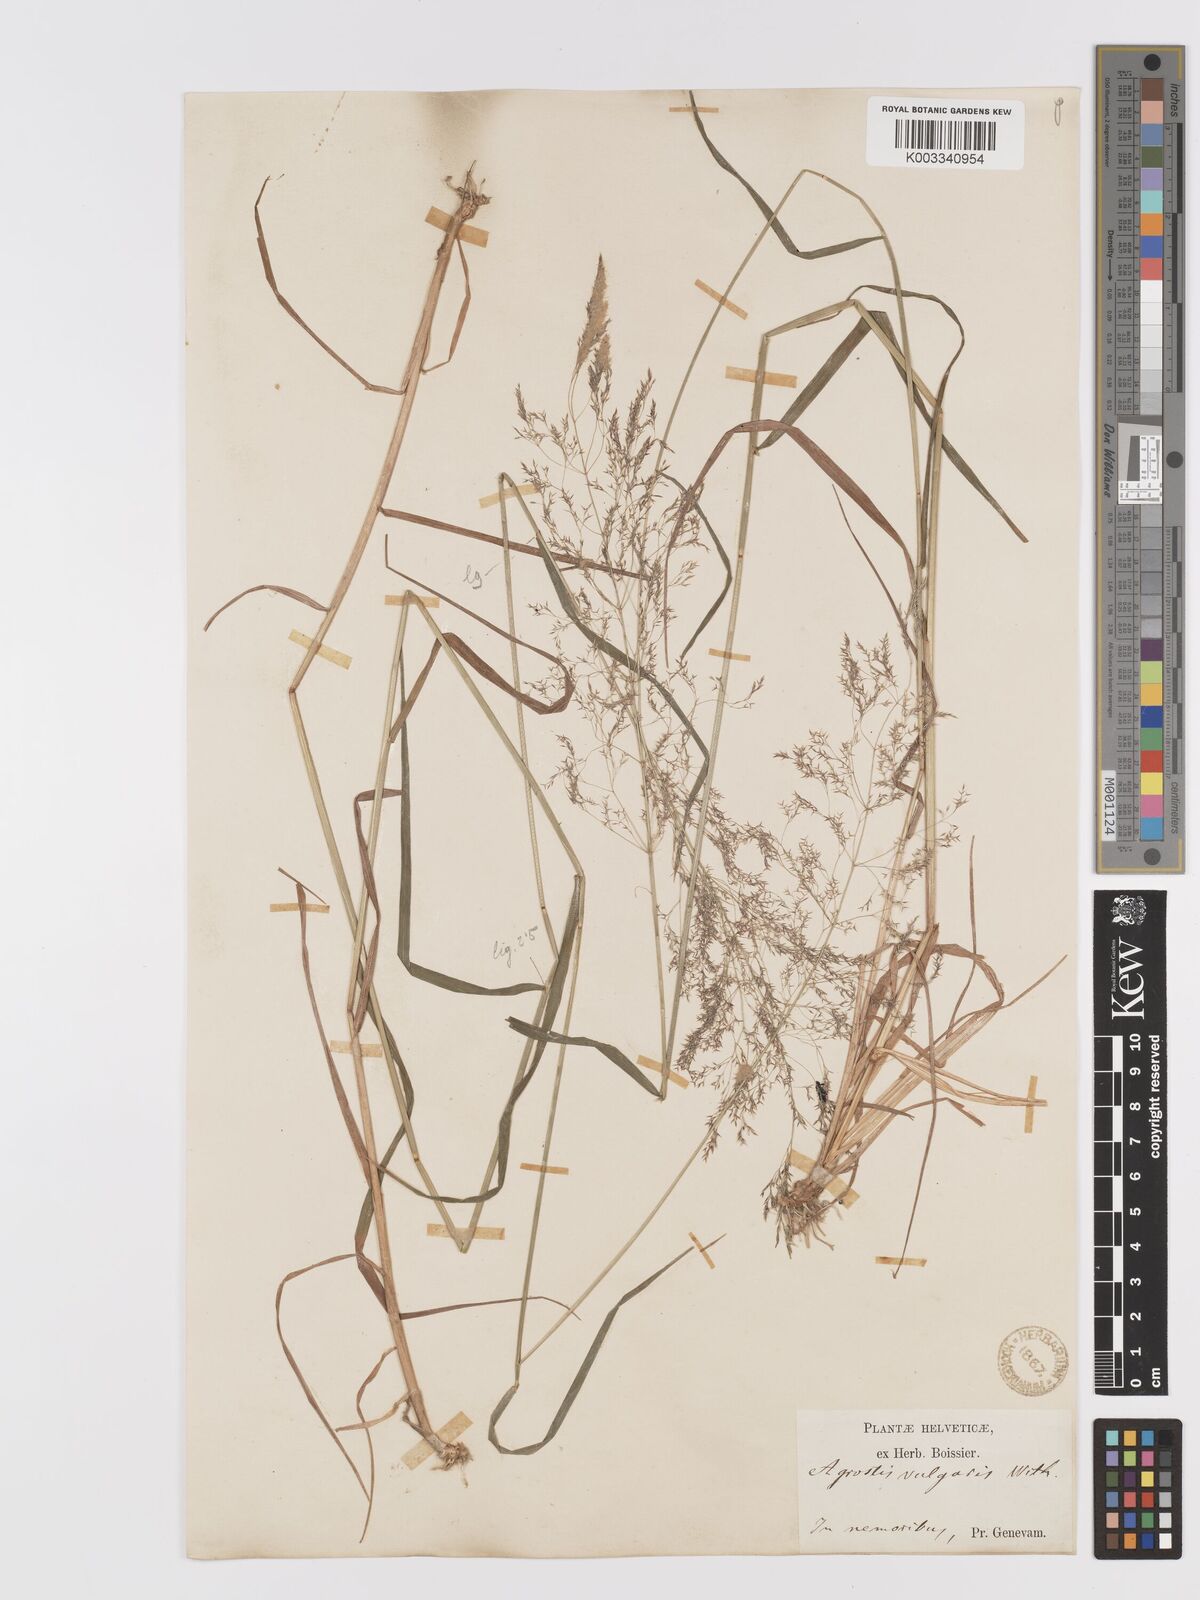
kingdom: Plantae
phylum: Tracheophyta
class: Liliopsida
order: Poales
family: Poaceae
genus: Agrostis
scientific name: Agrostis capillaris
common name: Colonial bentgrass
